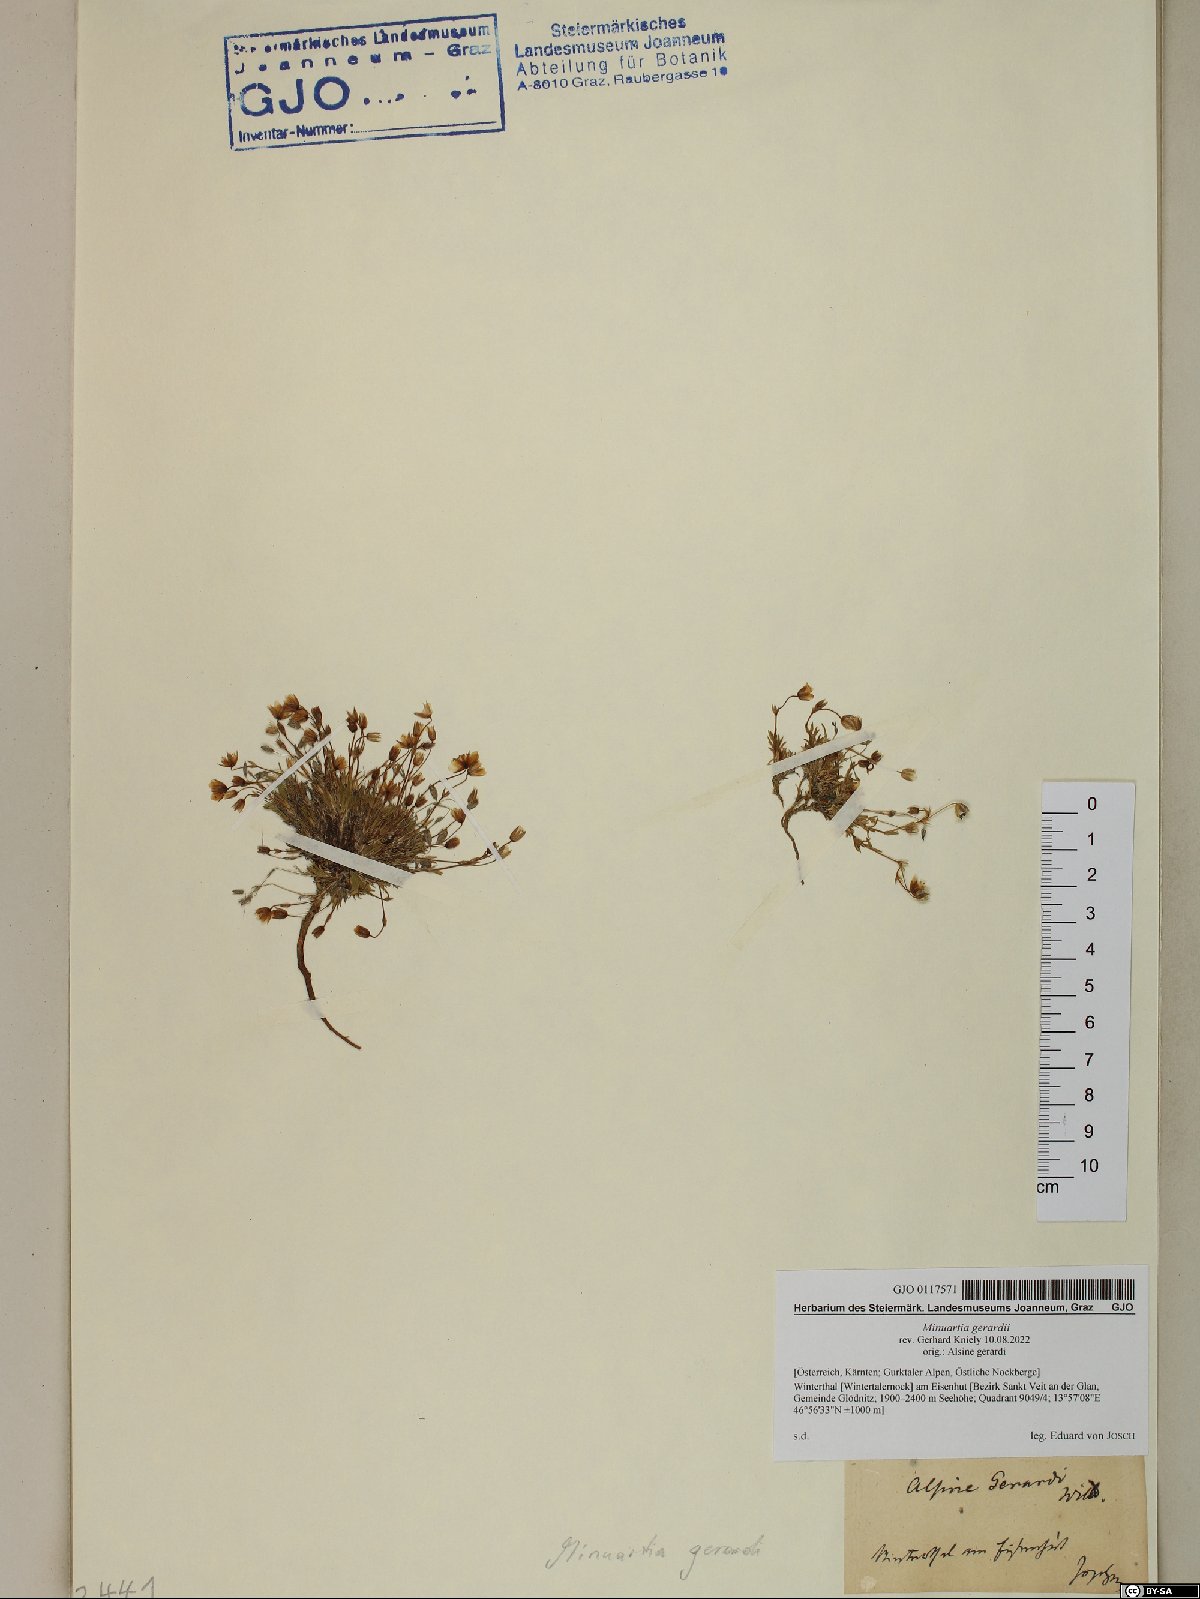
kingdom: Plantae
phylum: Tracheophyta
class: Magnoliopsida
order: Caryophyllales
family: Caryophyllaceae
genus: Sabulina
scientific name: Sabulina verna
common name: Spring sandwort
